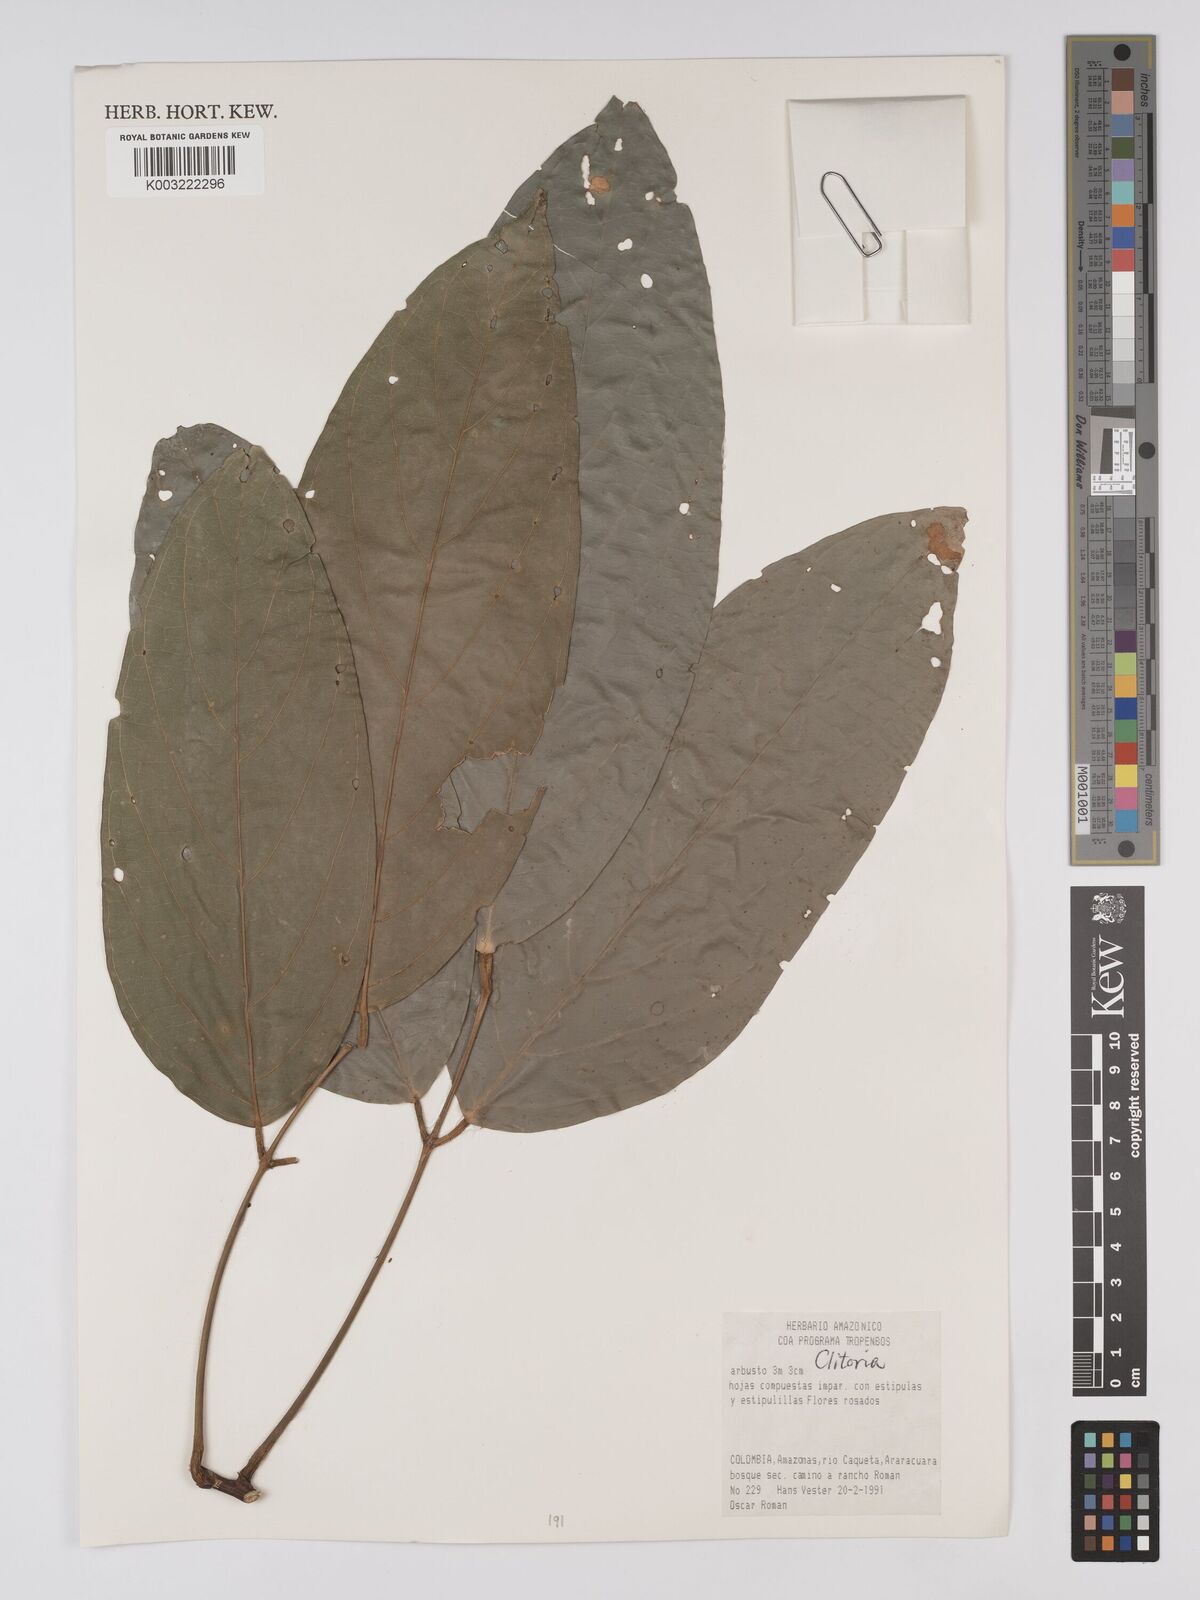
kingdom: Plantae
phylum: Tracheophyta
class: Magnoliopsida
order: Fabales
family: Fabaceae
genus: Clitoria
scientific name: Clitoria
